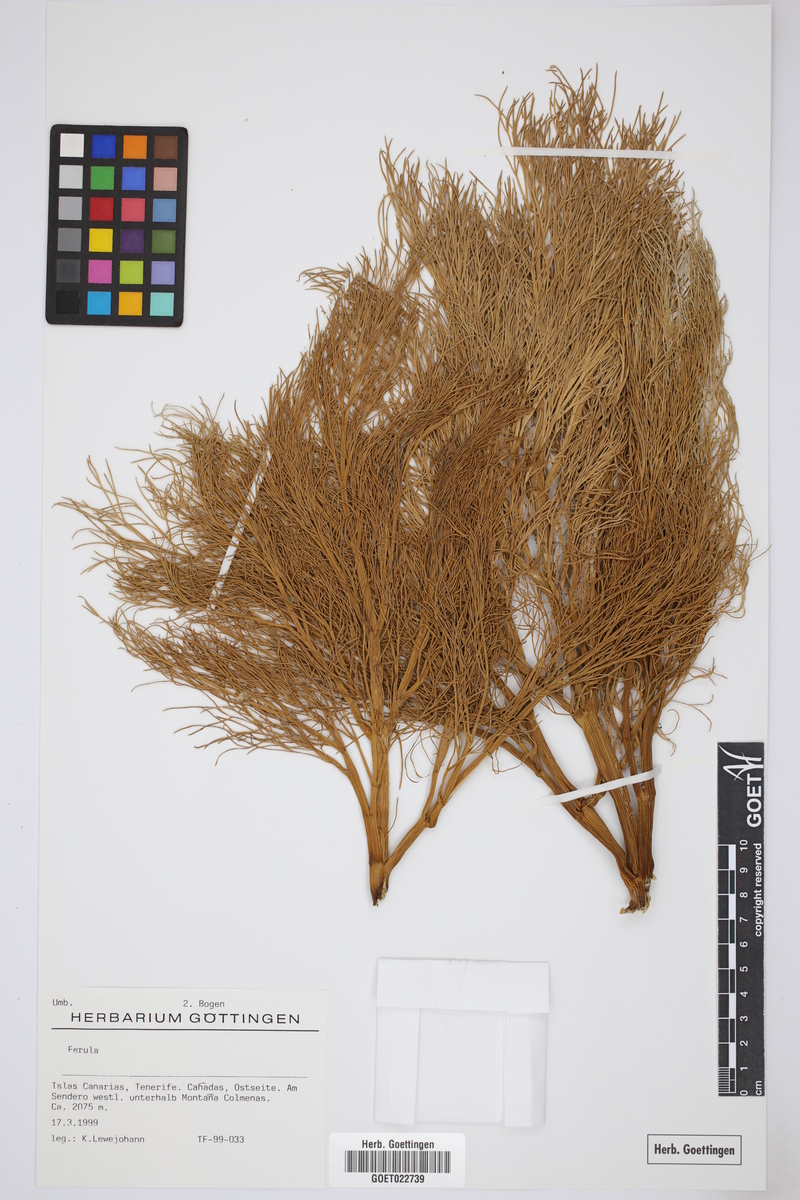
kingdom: Plantae
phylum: Tracheophyta
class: Magnoliopsida
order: Apiales
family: Apiaceae
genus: Ferula
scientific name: Ferula
